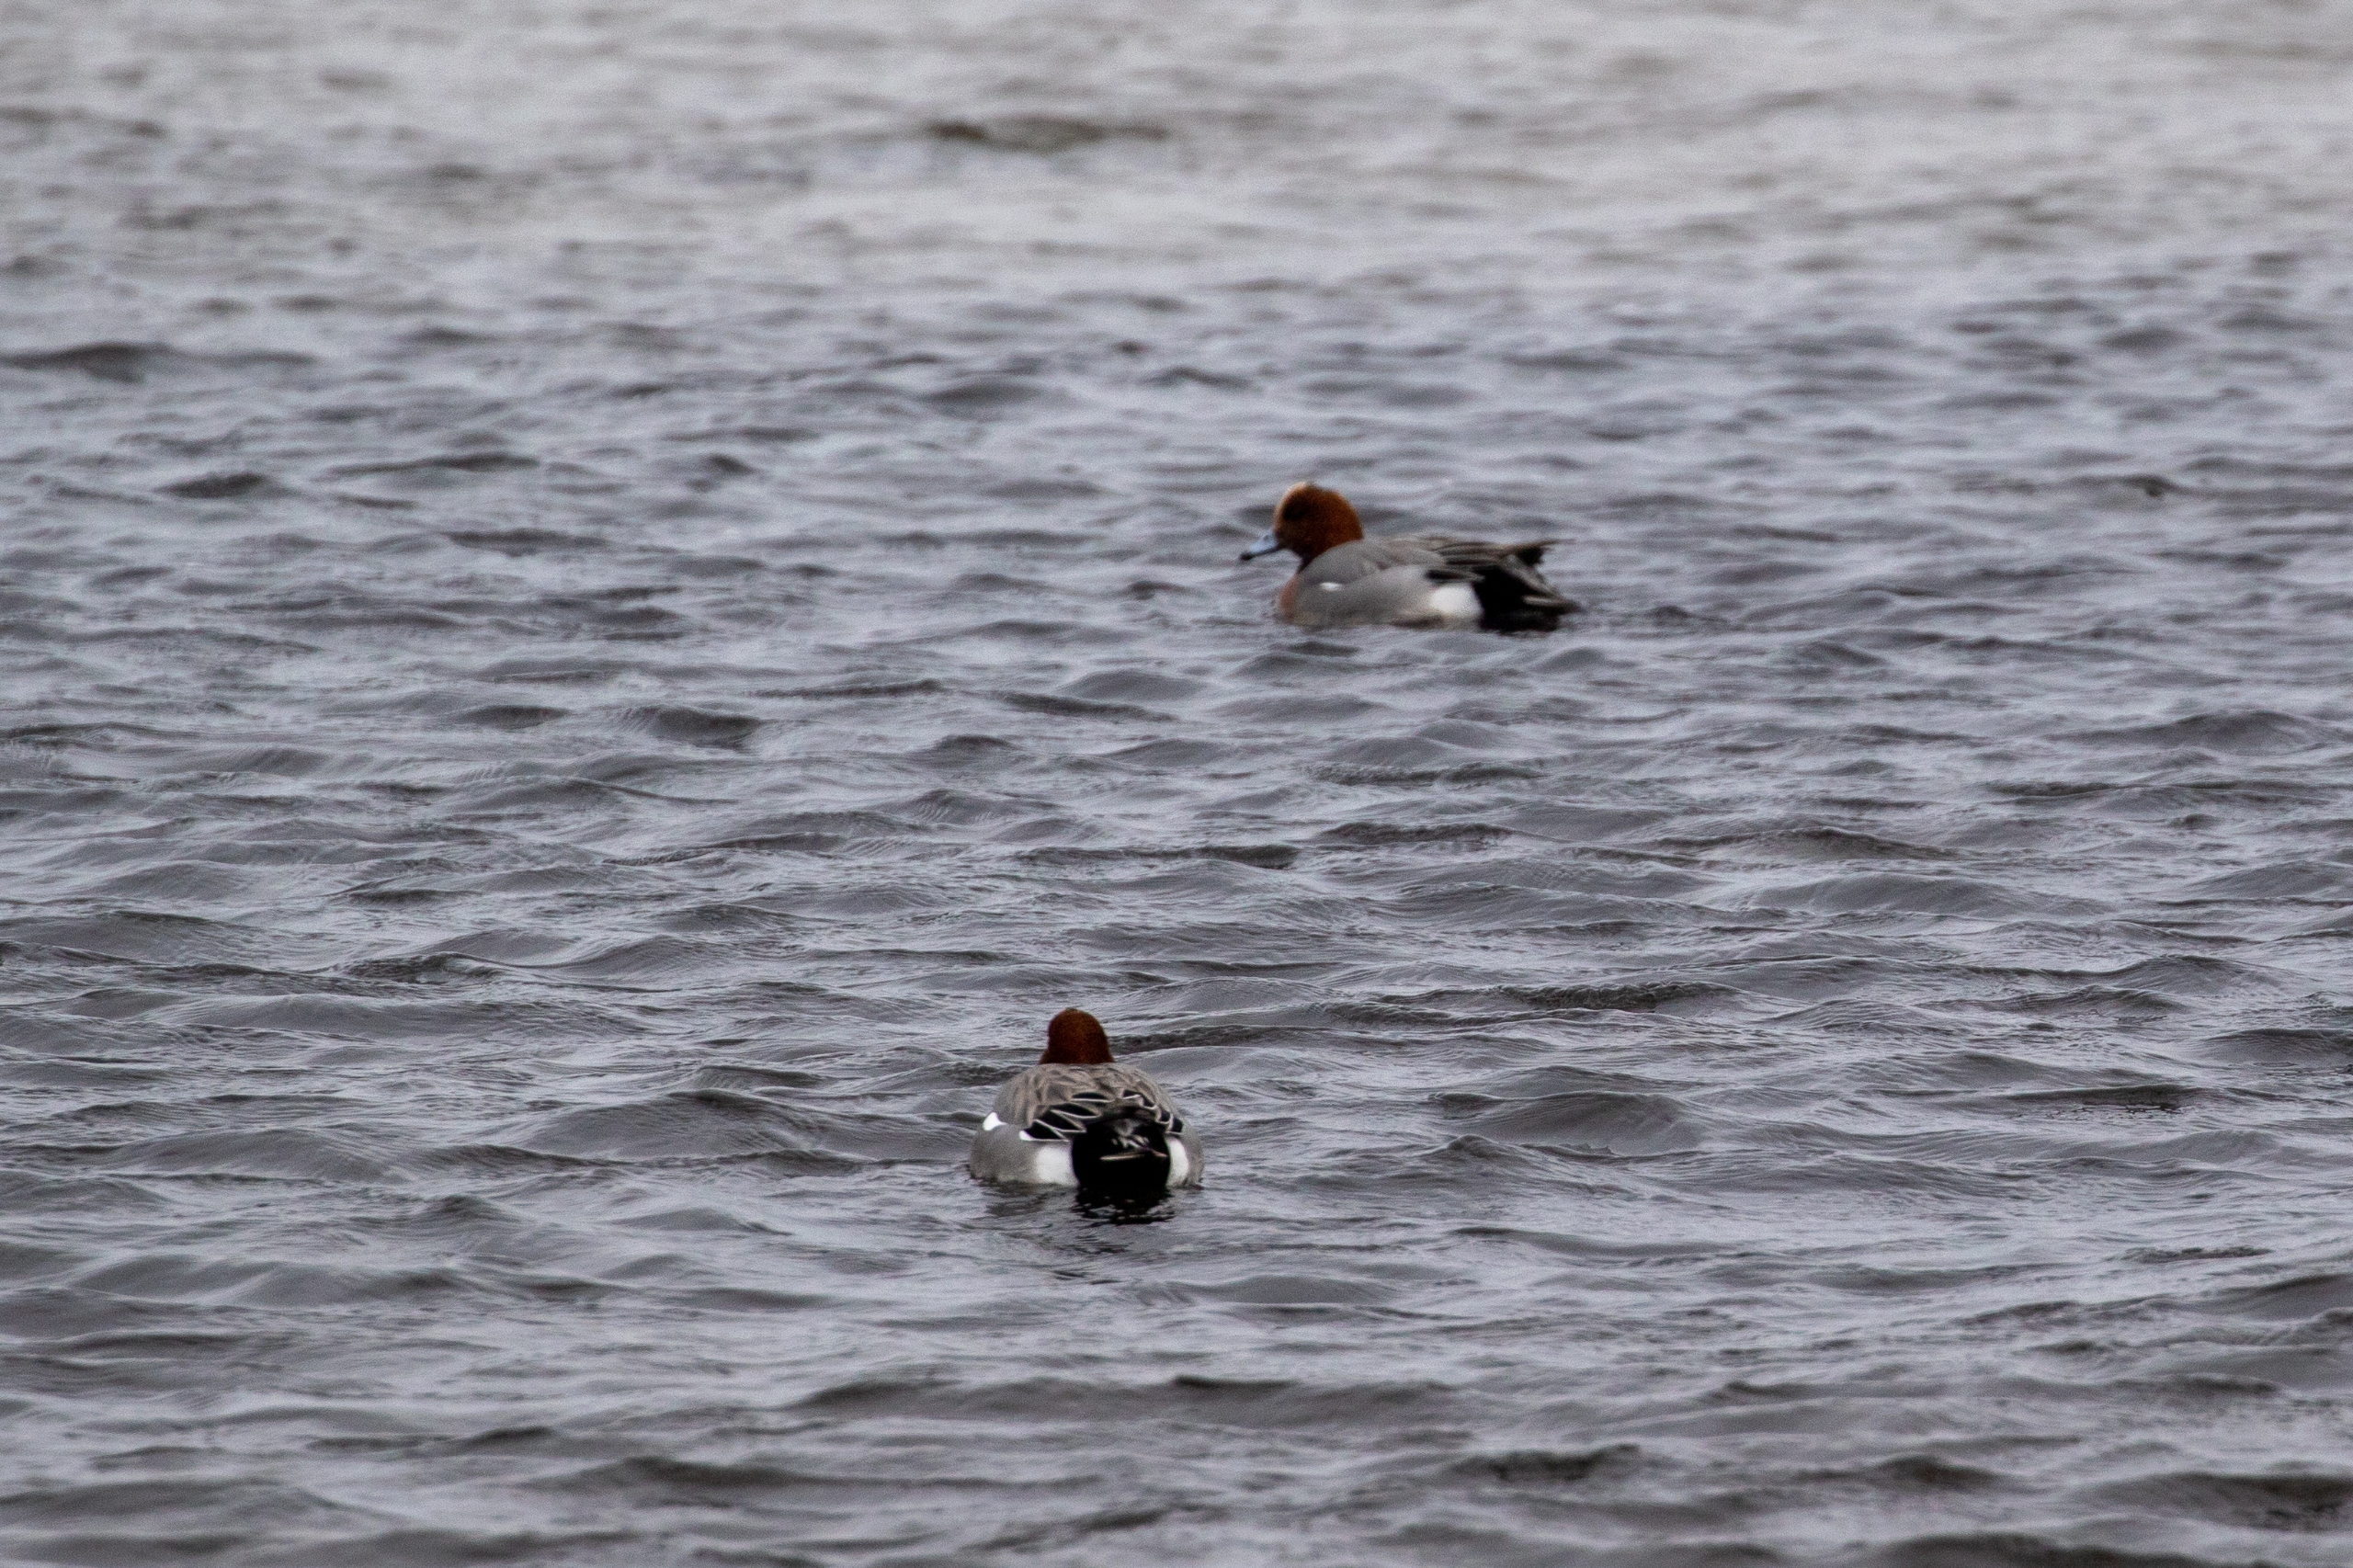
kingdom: Animalia
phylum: Chordata
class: Aves
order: Anseriformes
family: Anatidae
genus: Mareca
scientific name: Mareca penelope
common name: Pibeand
